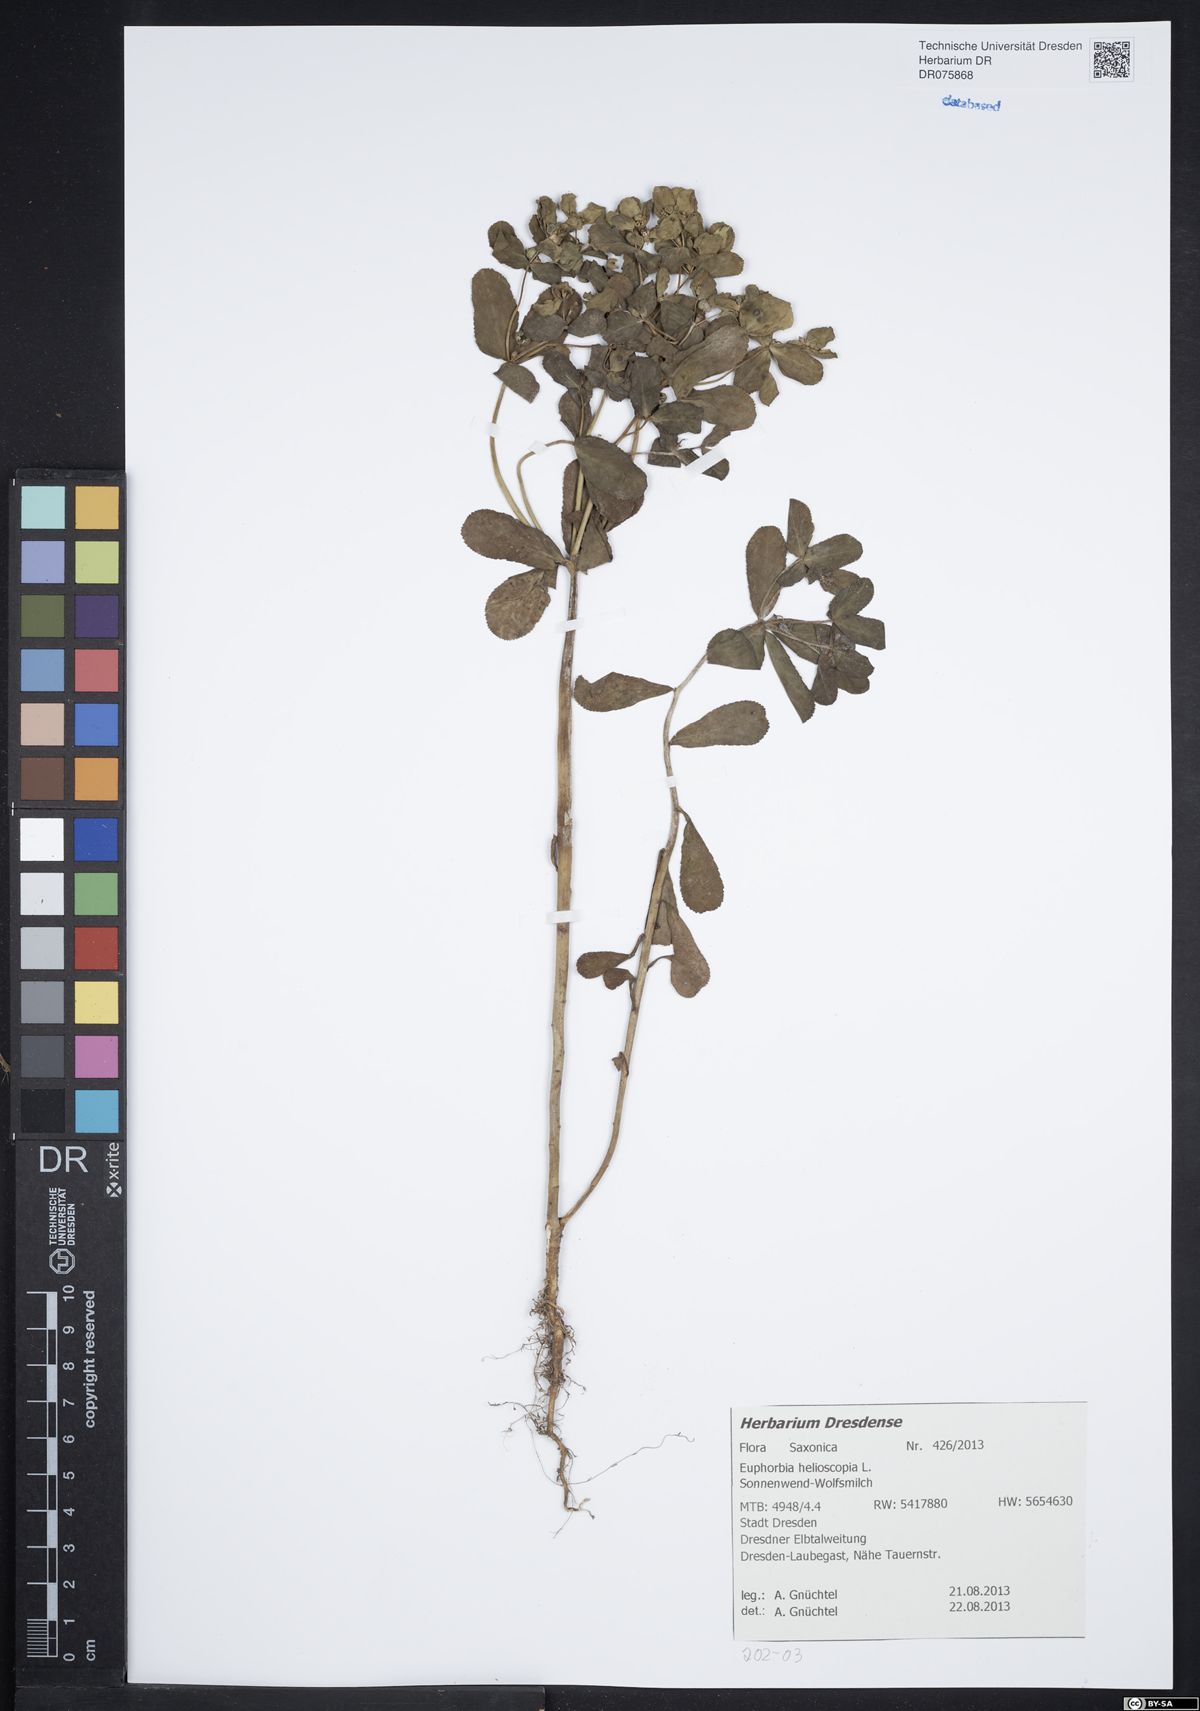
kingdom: Plantae
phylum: Tracheophyta
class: Magnoliopsida
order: Malpighiales
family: Euphorbiaceae
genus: Euphorbia
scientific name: Euphorbia helioscopia
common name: Sun spurge
